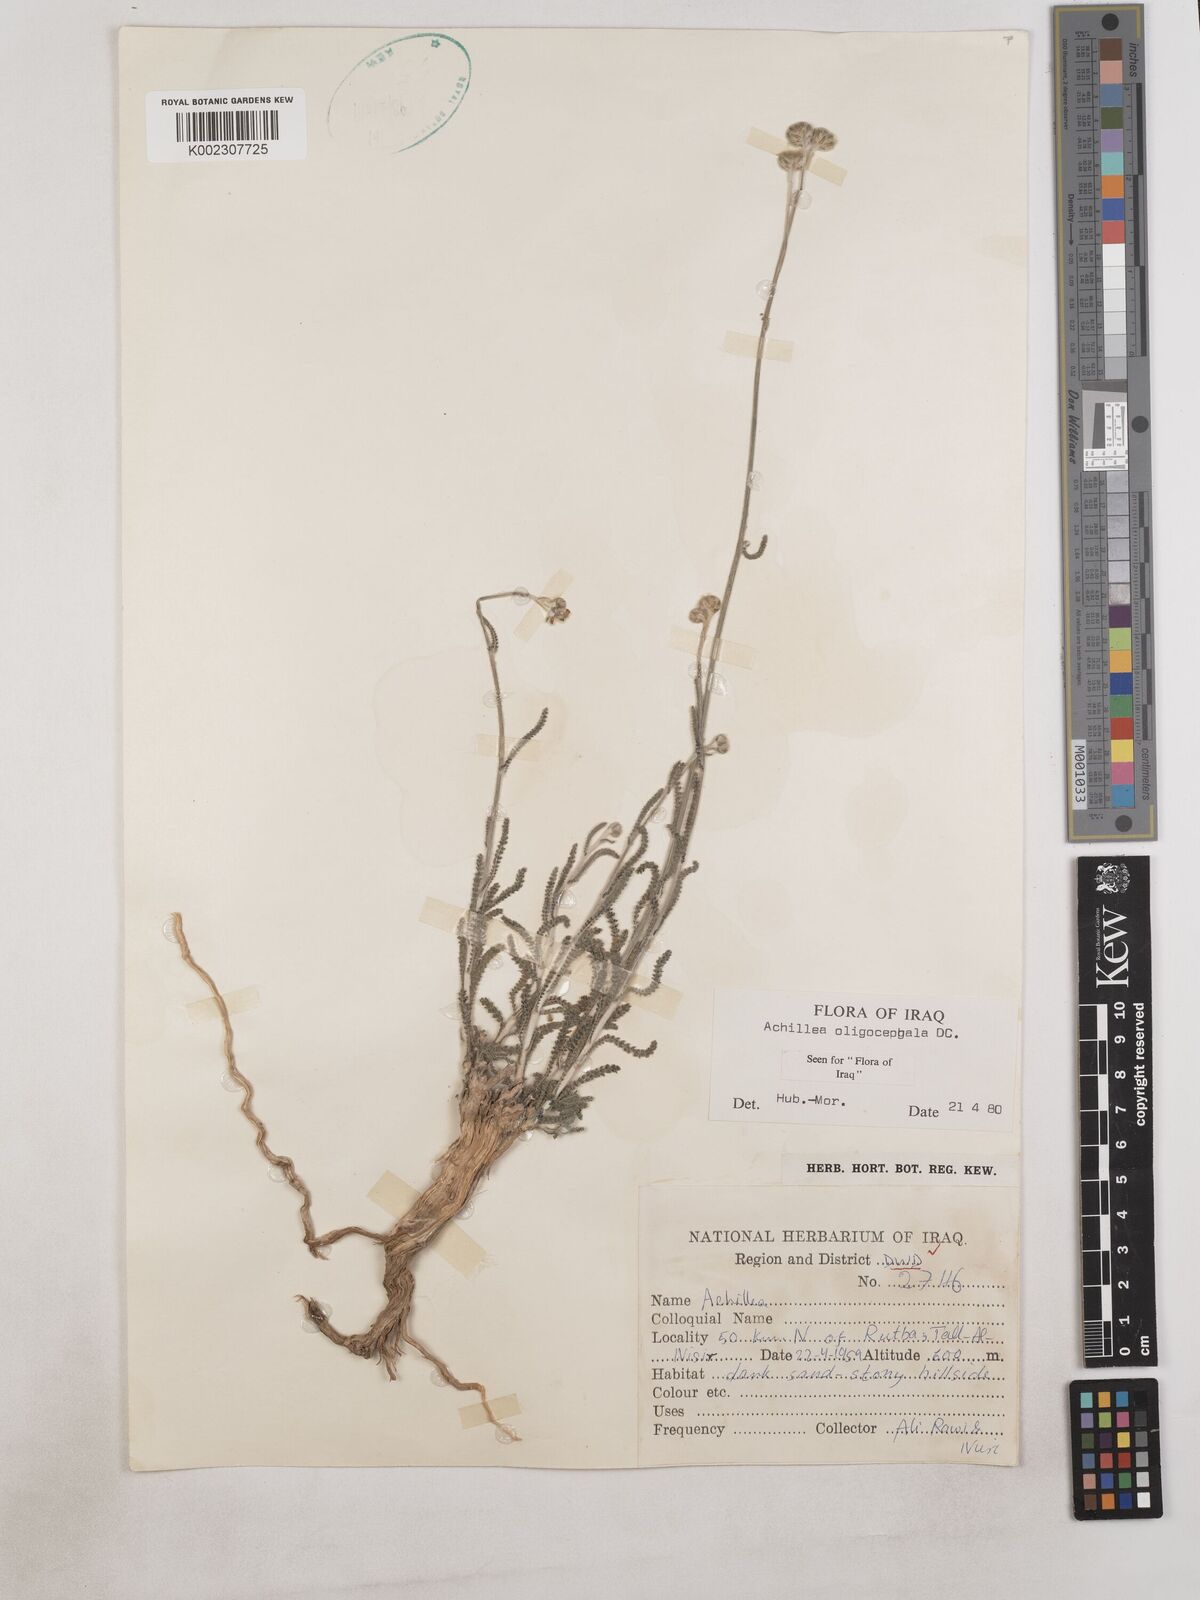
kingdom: Plantae
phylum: Tracheophyta
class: Magnoliopsida
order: Asterales
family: Asteraceae
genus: Achillea
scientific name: Achillea oligocephala
